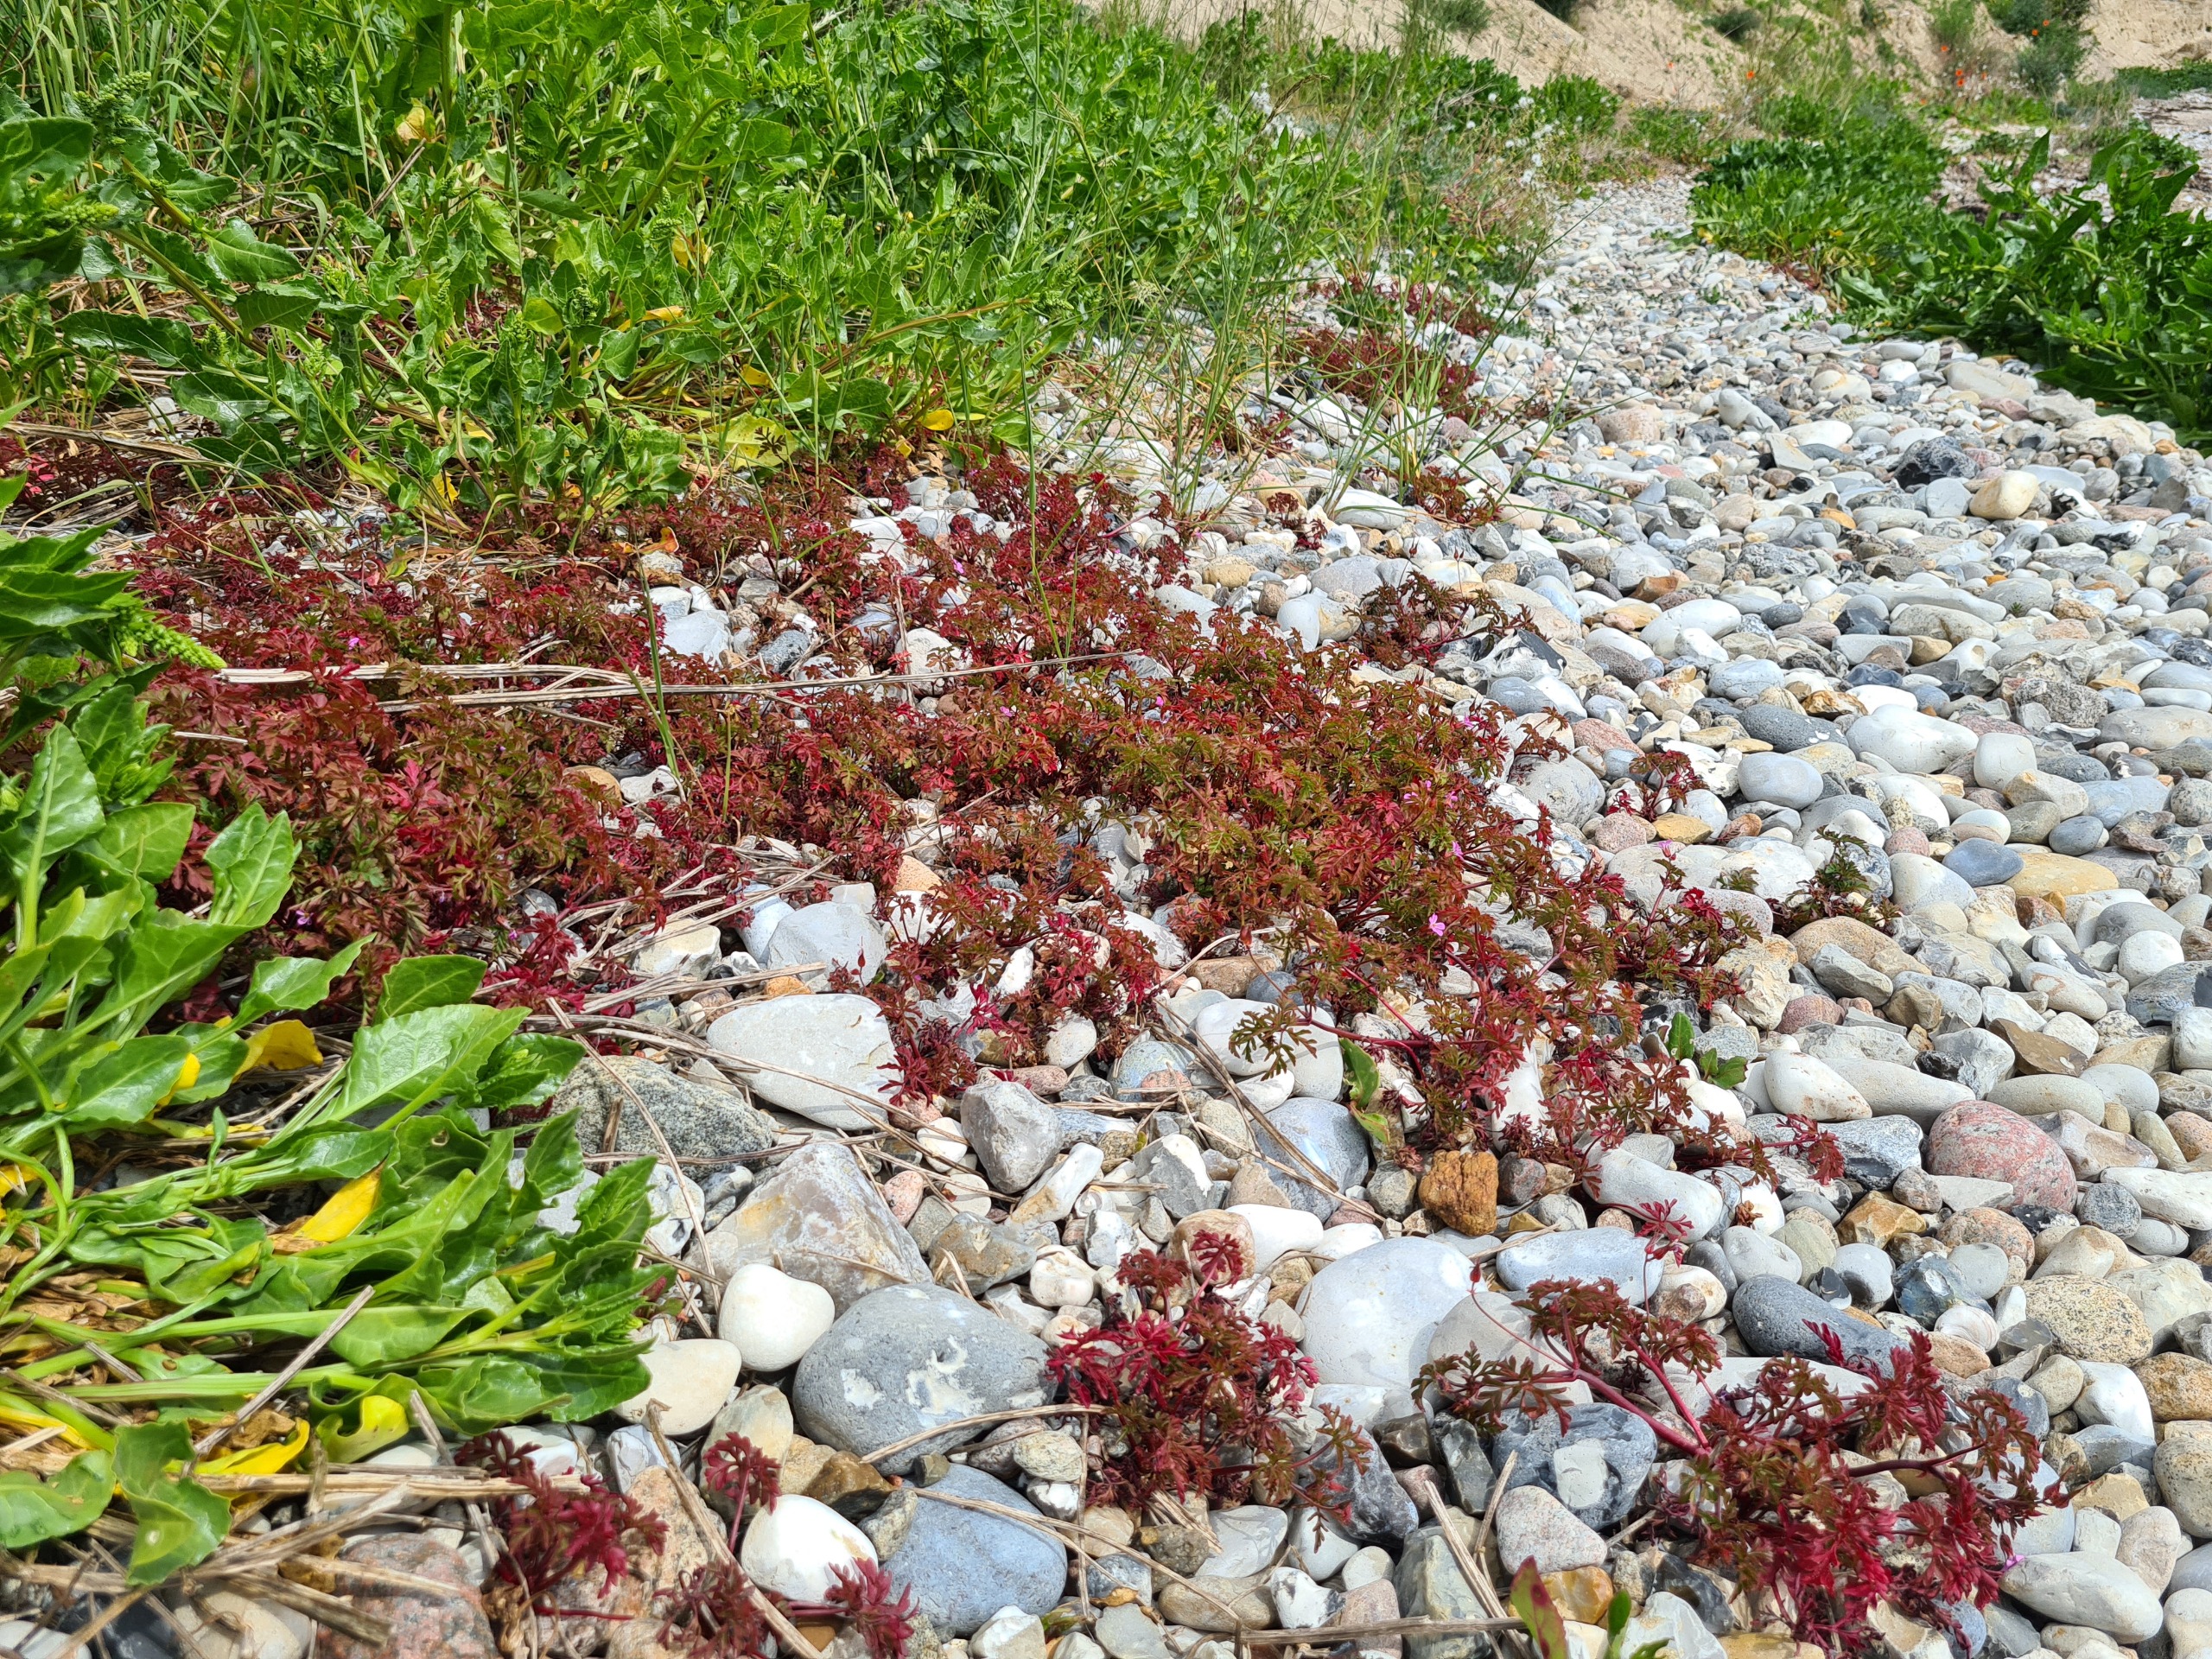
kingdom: Plantae
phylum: Tracheophyta
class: Magnoliopsida
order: Geraniales
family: Geraniaceae
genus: Geranium
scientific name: Geranium purpureum
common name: Strand-storkenæb
